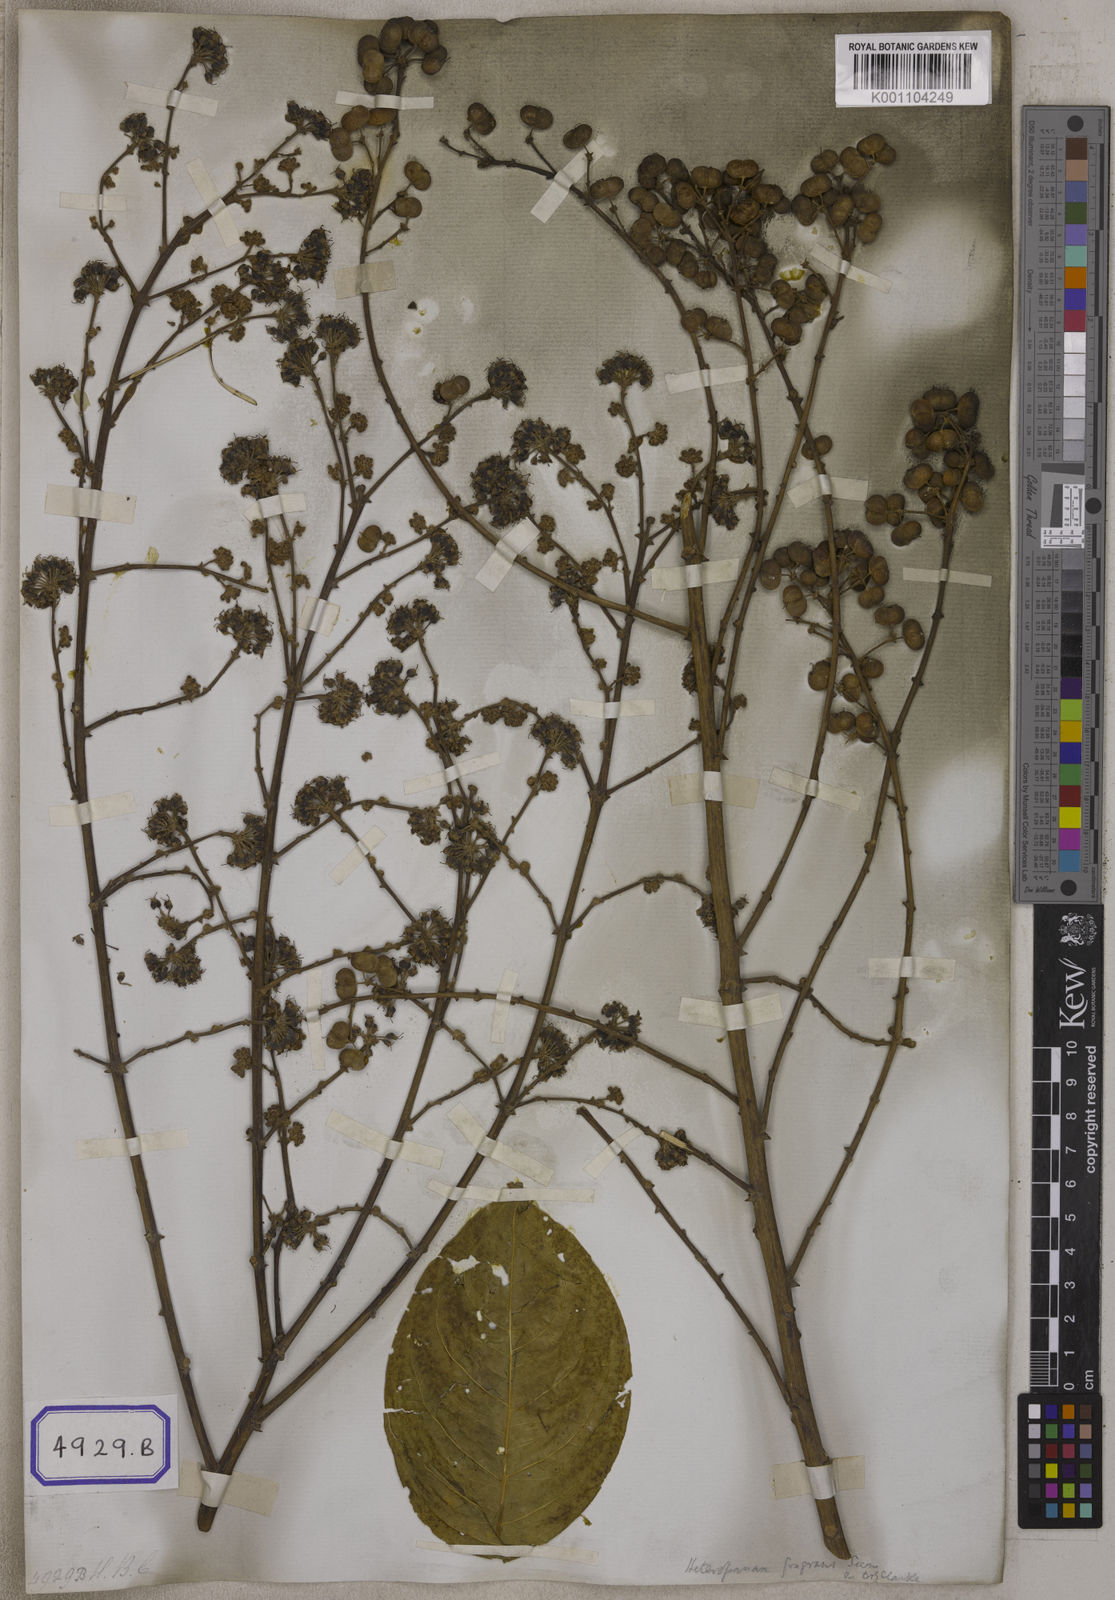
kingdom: Plantae
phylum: Tracheophyta
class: Magnoliopsida
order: Apiales
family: Araliaceae
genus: Heteropanax
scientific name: Heteropanax fragrans
